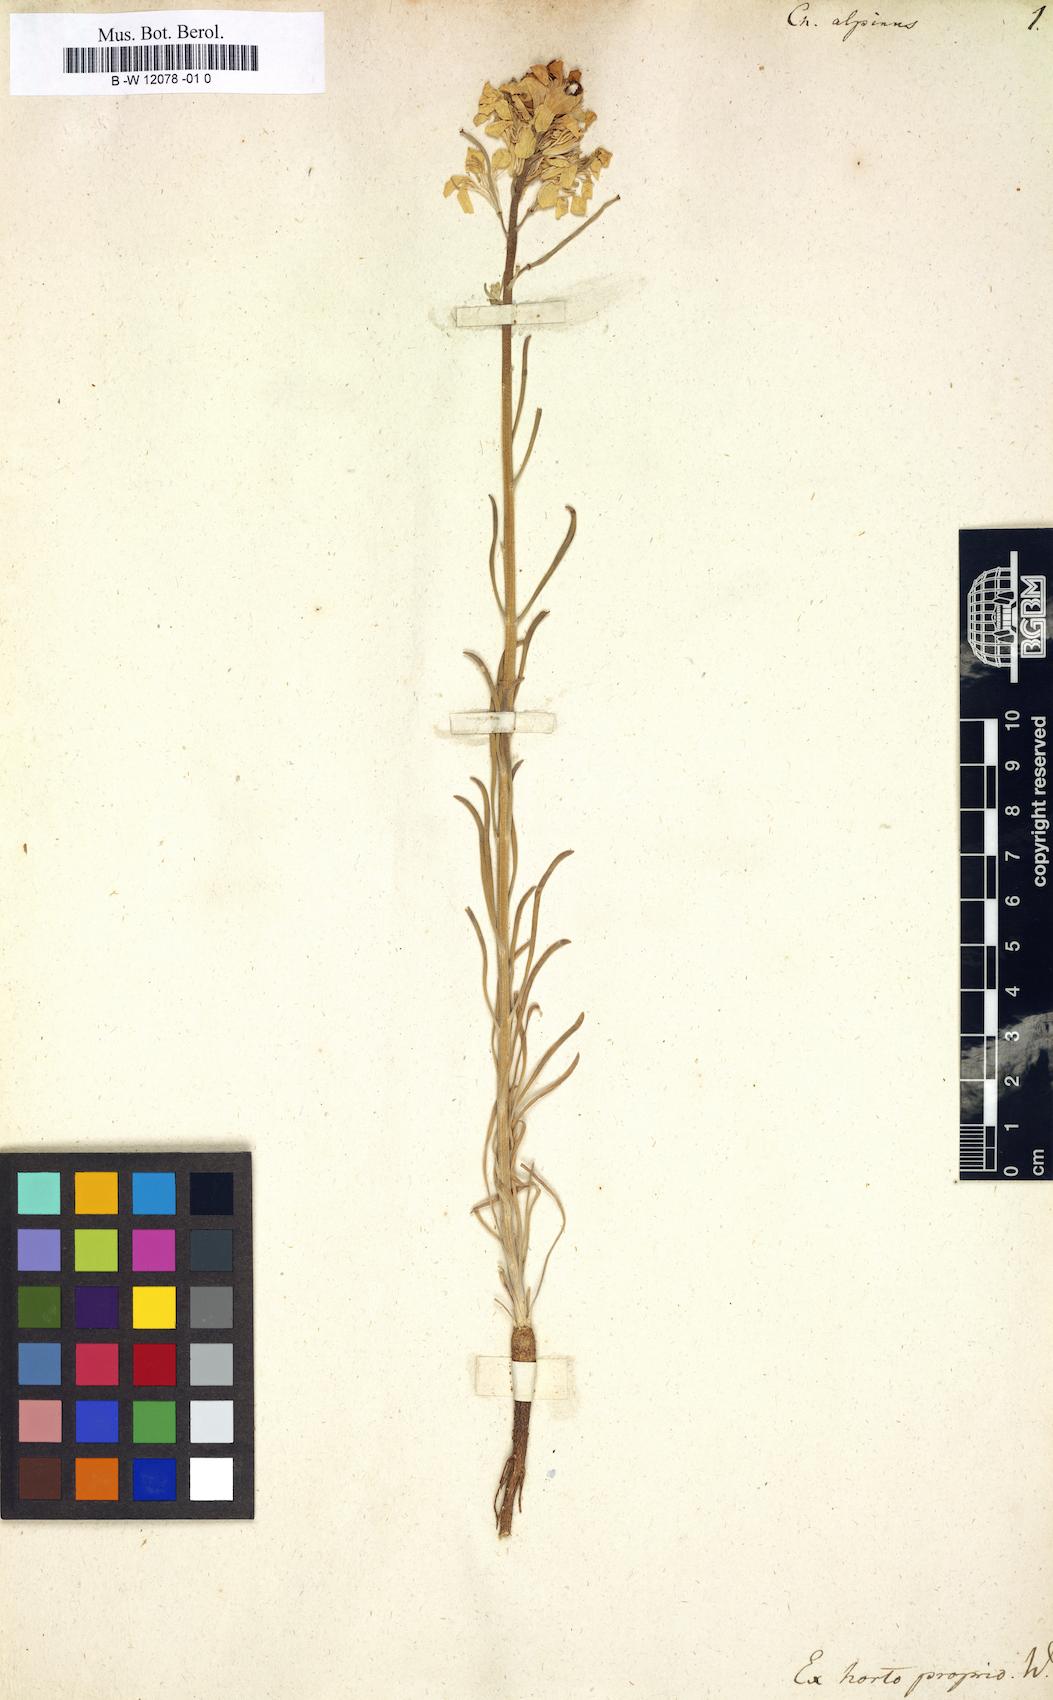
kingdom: Plantae
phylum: Tracheophyta
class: Magnoliopsida
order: Brassicales
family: Brassicaceae
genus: Erysimum
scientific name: Erysimum
